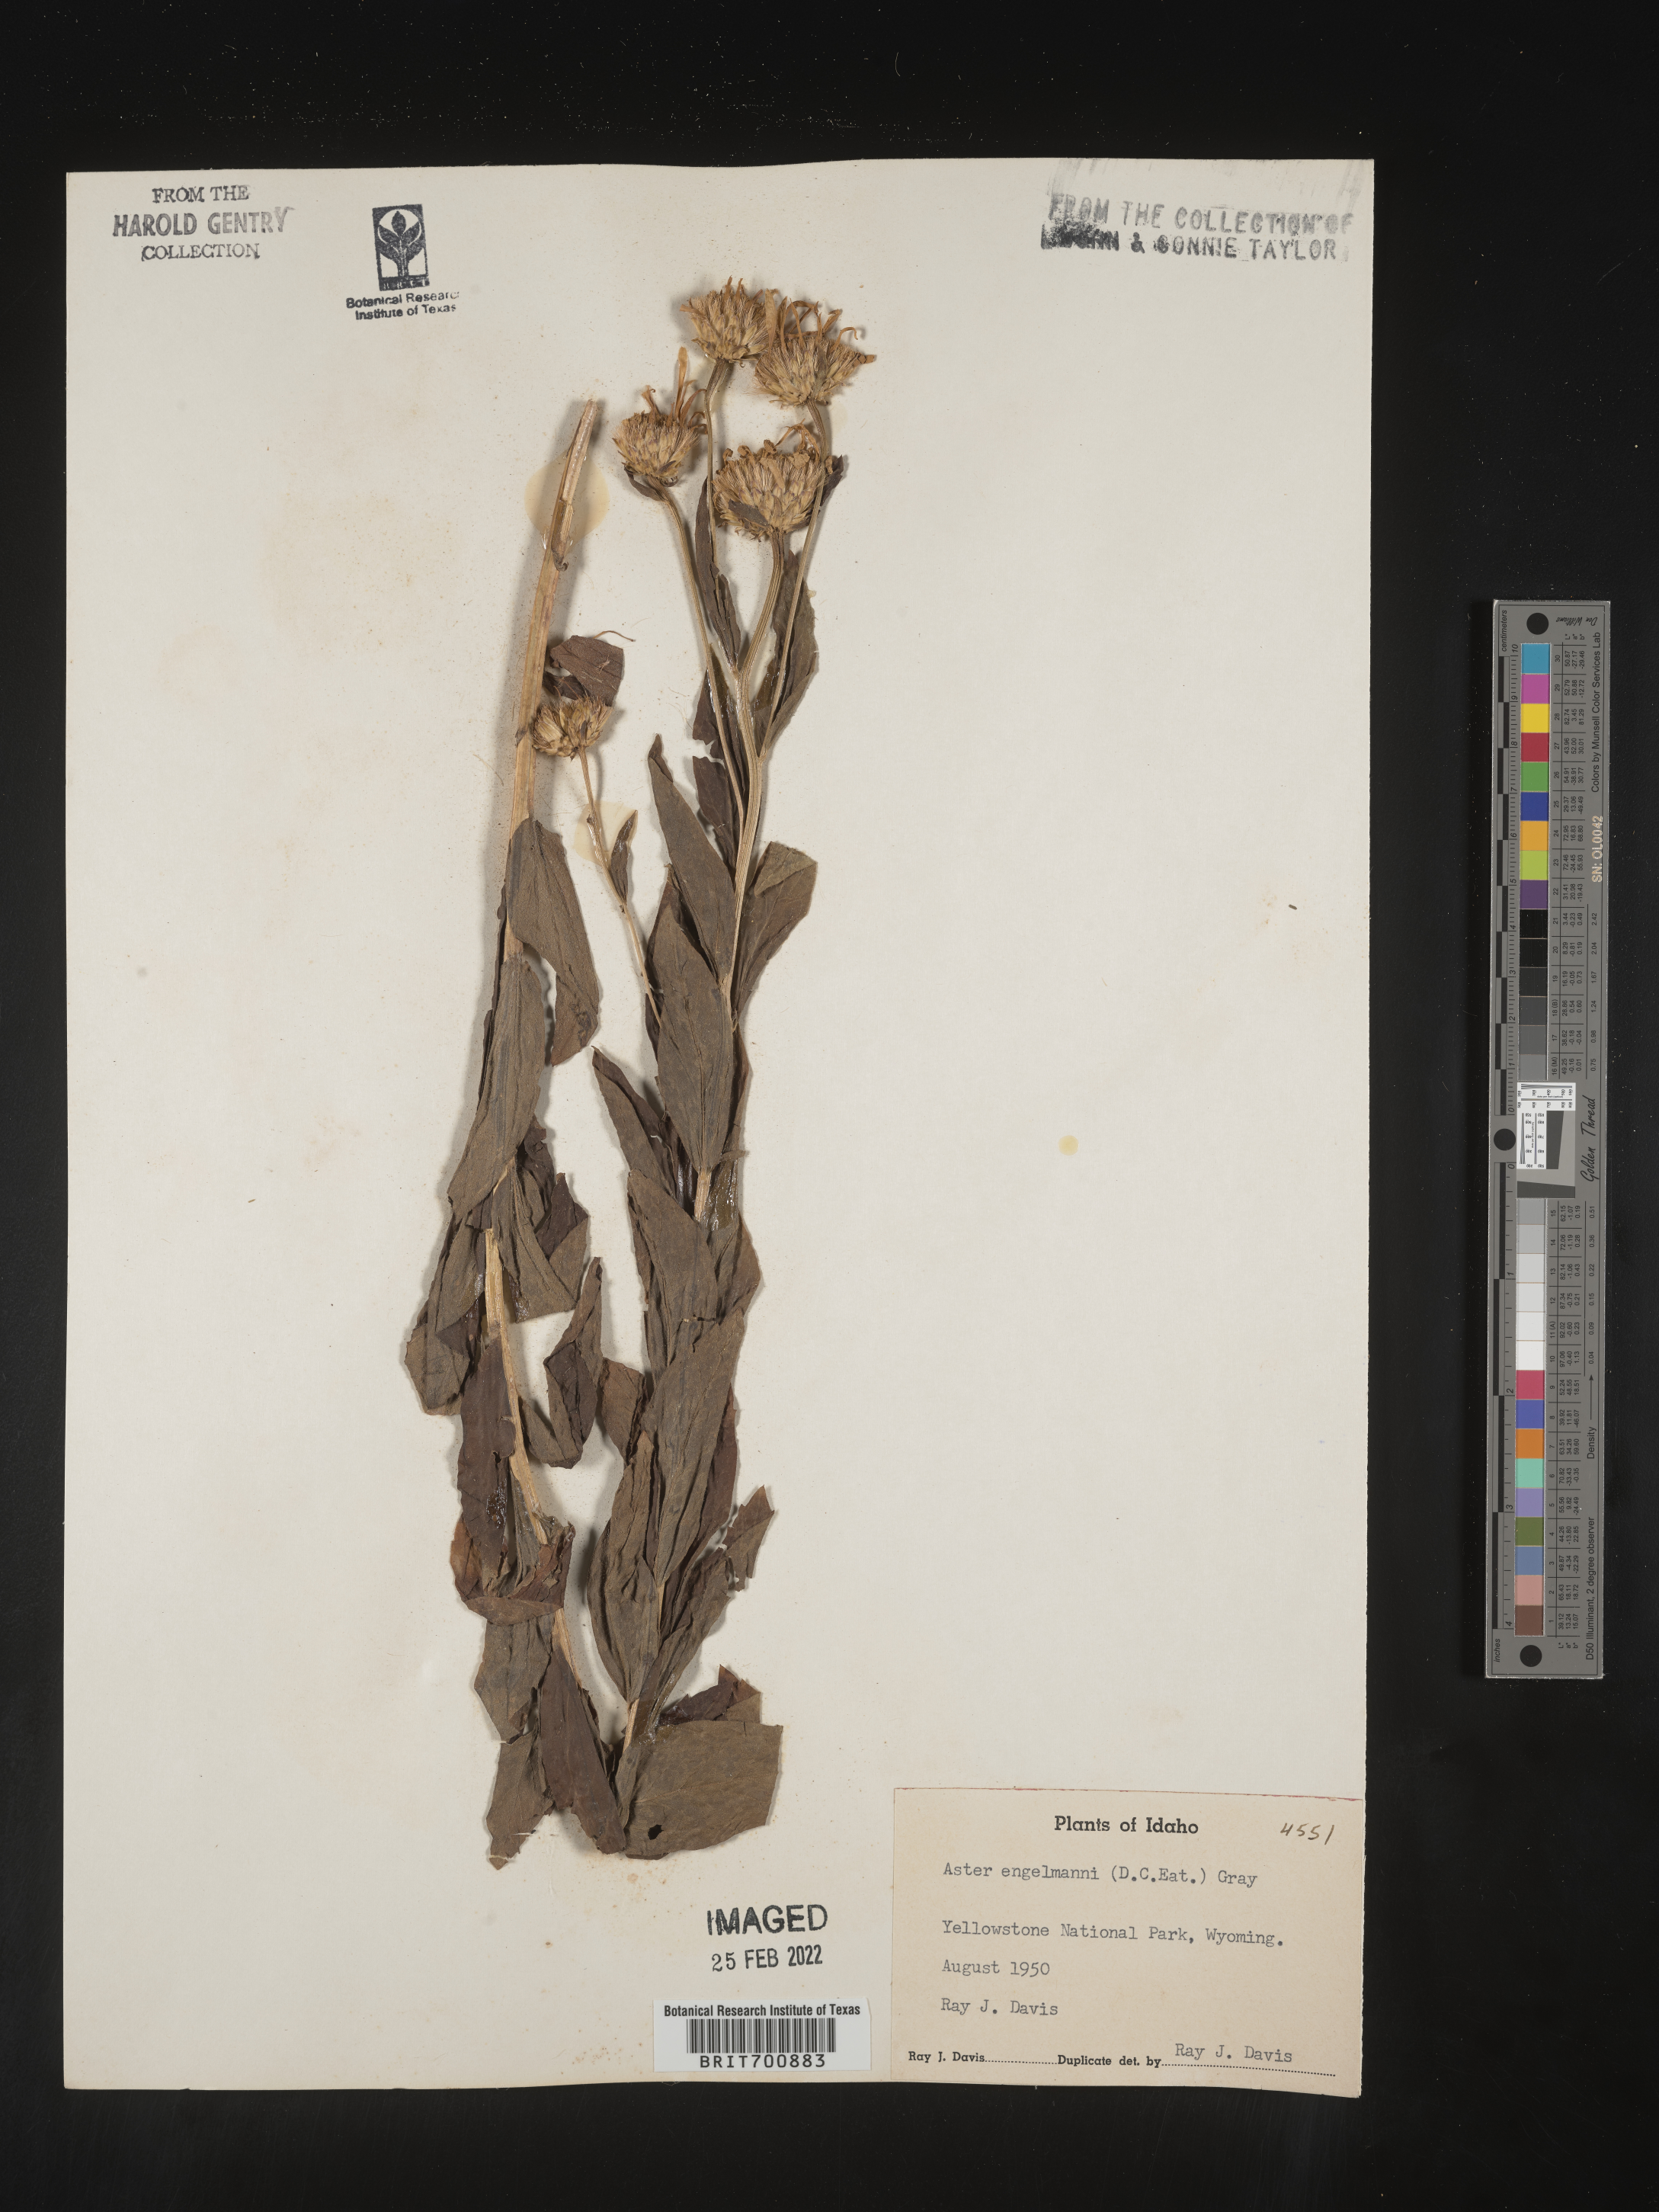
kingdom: Plantae
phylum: Tracheophyta
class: Magnoliopsida
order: Asterales
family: Asteraceae
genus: Eucephalus
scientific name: Eucephalus engelmannii
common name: Engelmann's aster
